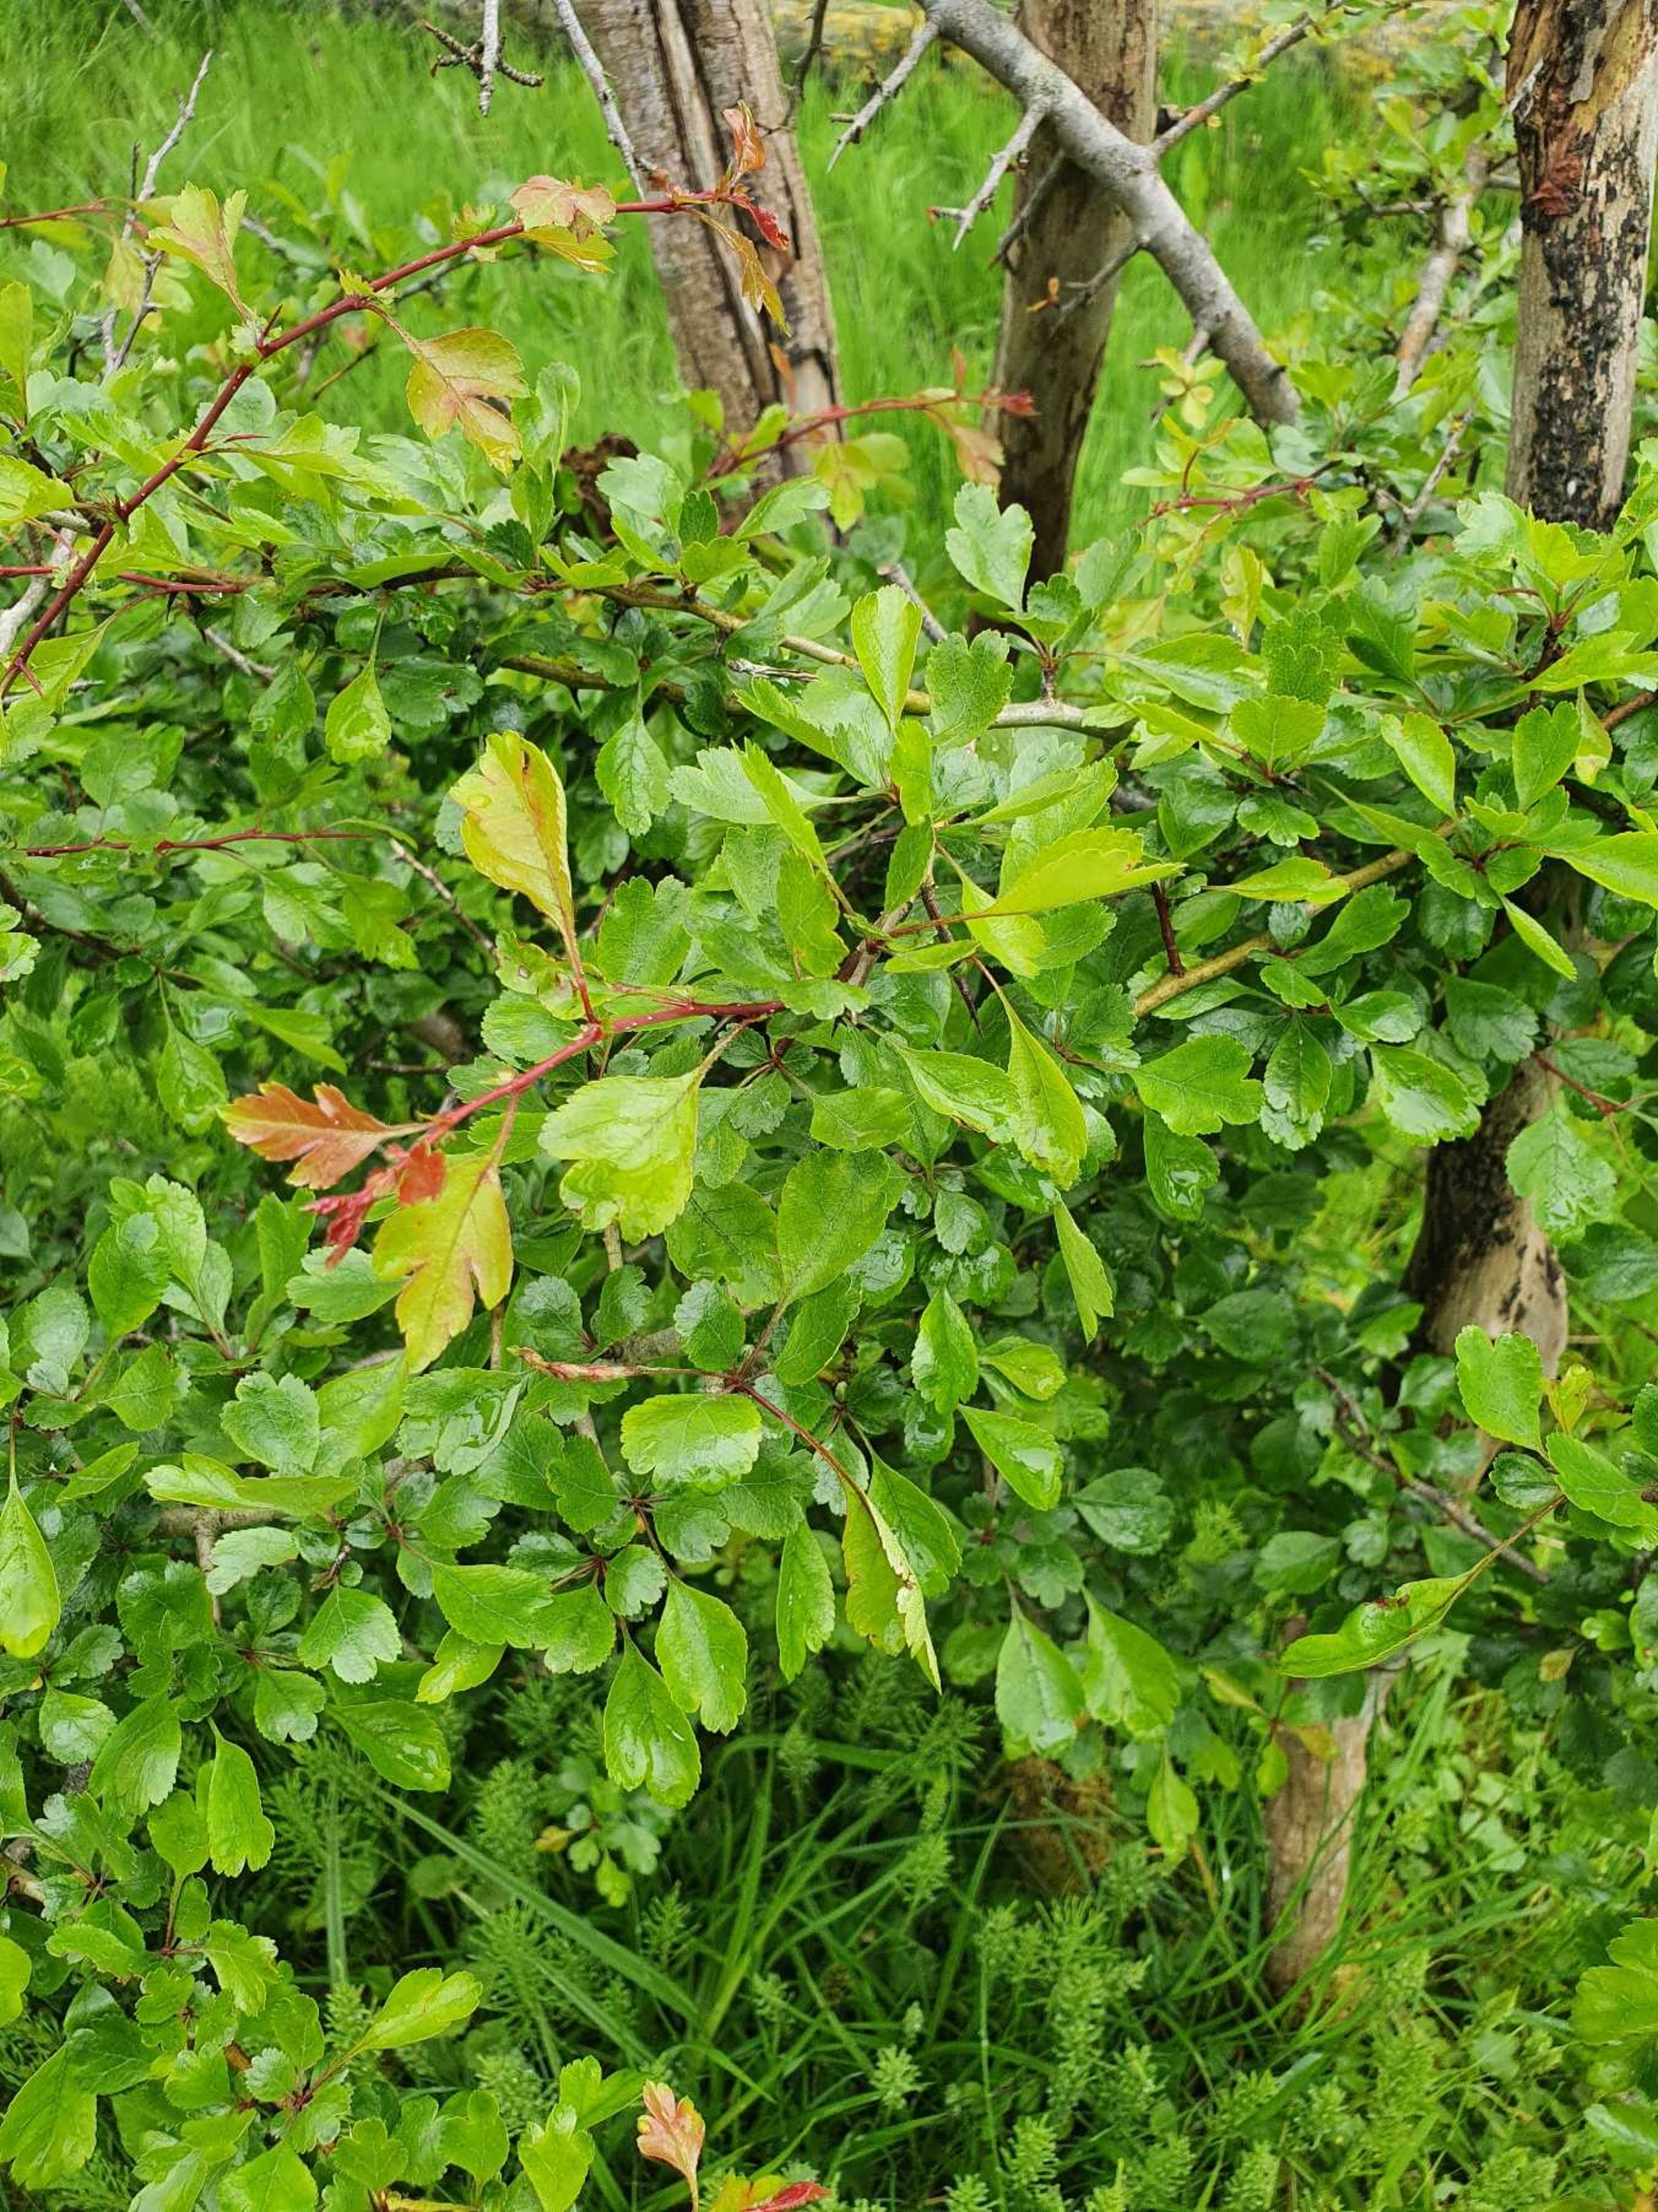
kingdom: Plantae
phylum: Tracheophyta
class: Magnoliopsida
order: Rosales
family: Rosaceae
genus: Crataegus
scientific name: Crataegus laevigata
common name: Almindelig hvidtjørn
